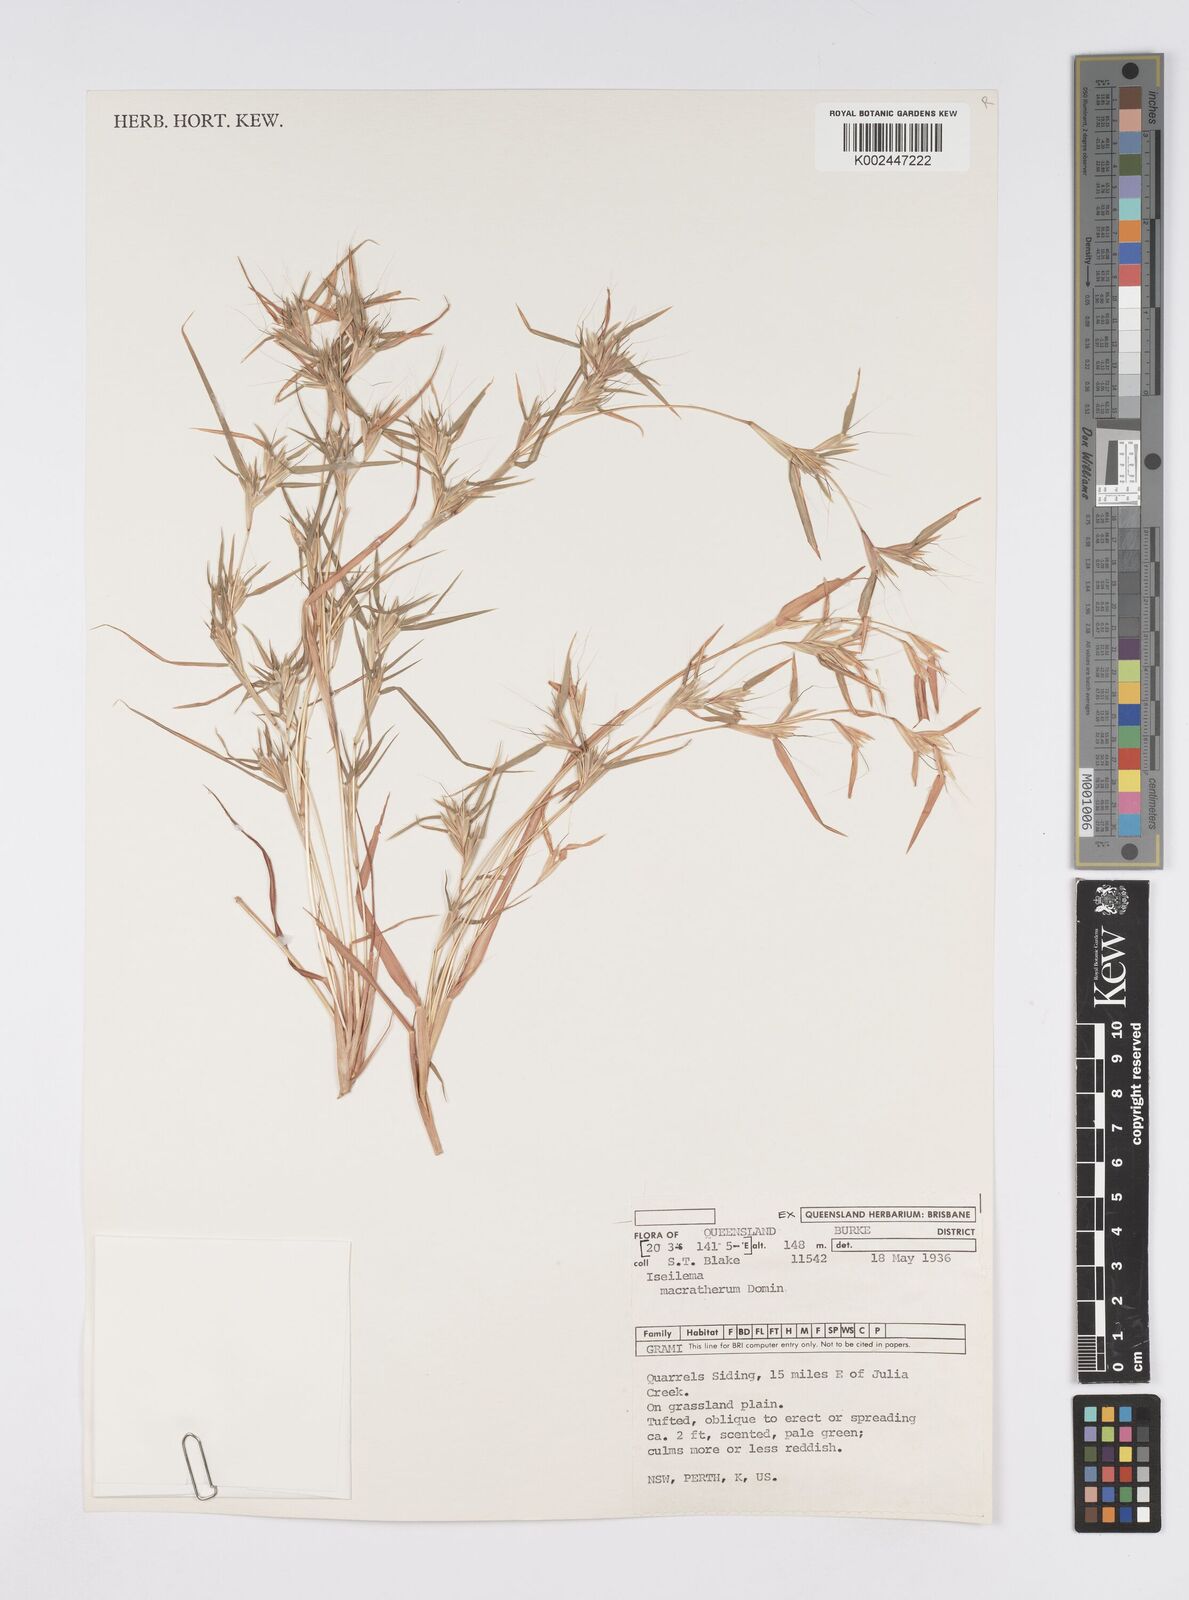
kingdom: Plantae
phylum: Tracheophyta
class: Liliopsida
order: Poales
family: Poaceae
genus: Iseilema
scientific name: Iseilema macratherum
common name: Bull flinders grass
